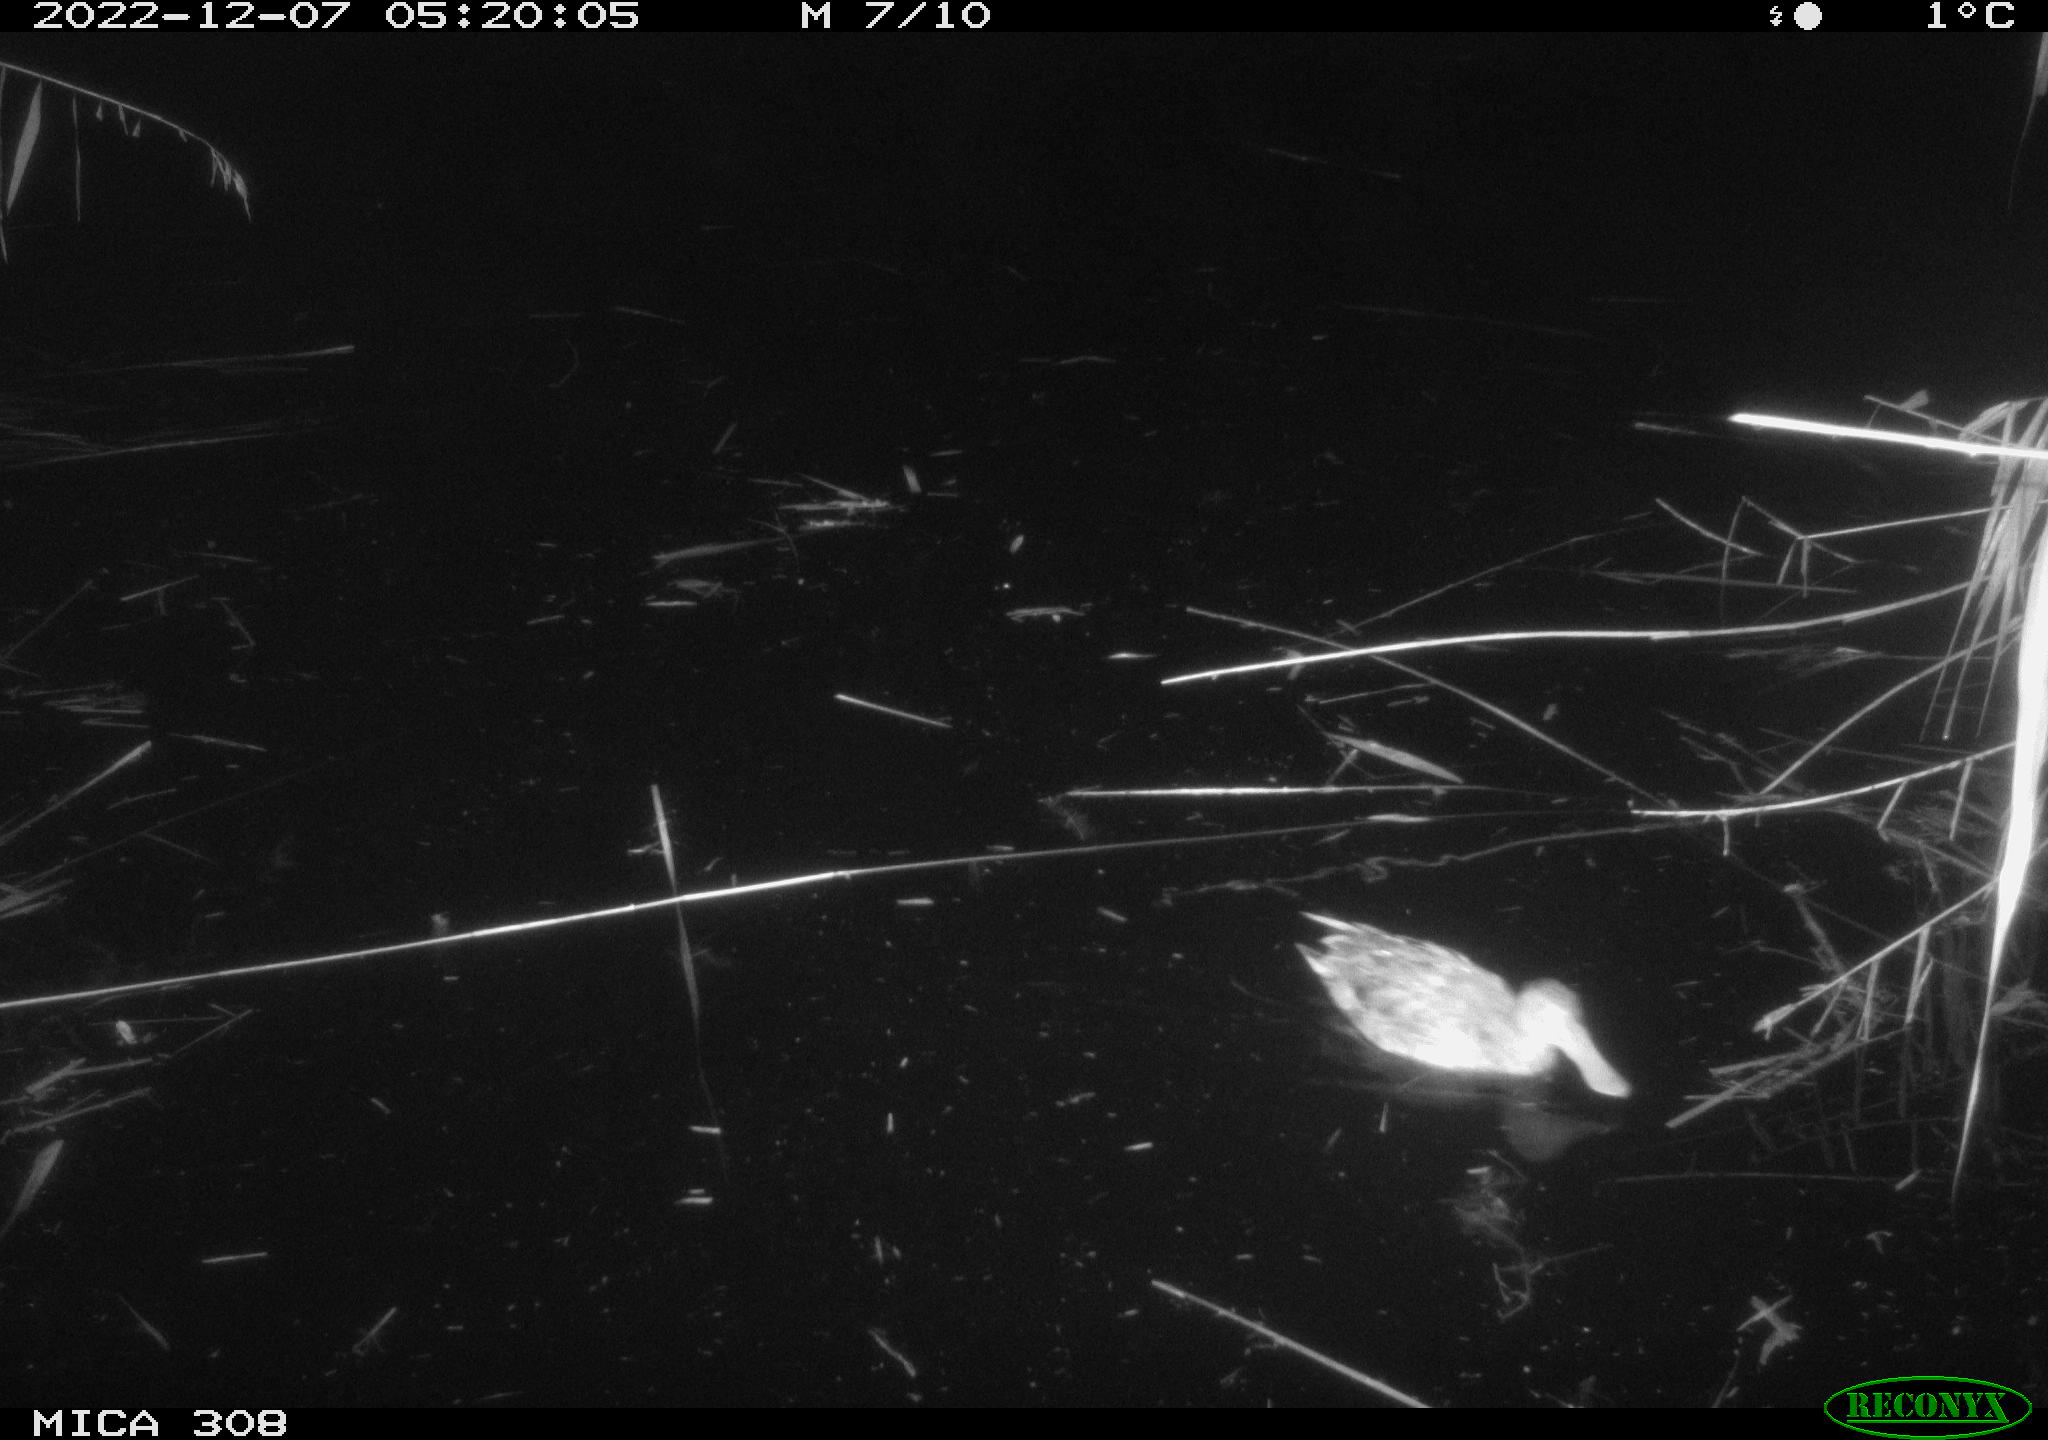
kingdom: Animalia
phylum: Chordata
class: Aves
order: Anseriformes
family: Anatidae
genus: Anas
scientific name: Anas
